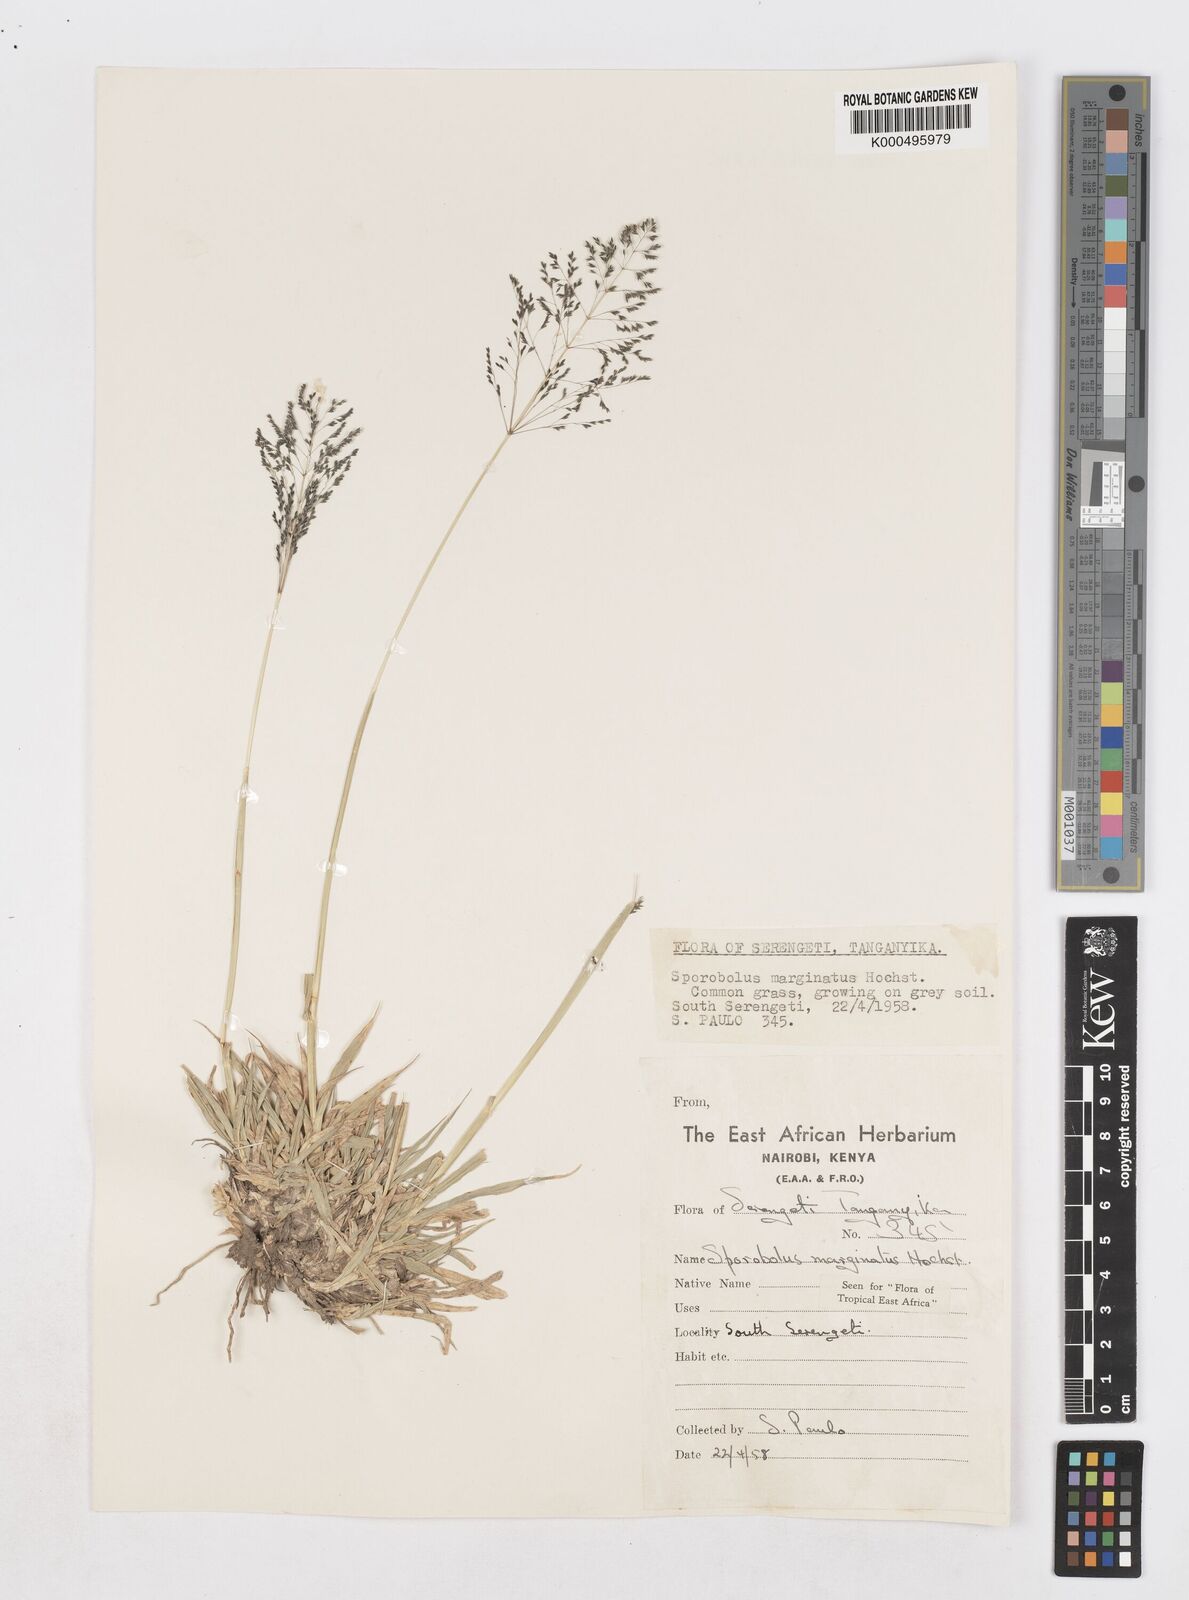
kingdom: Plantae
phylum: Tracheophyta
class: Liliopsida
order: Poales
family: Poaceae
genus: Sporobolus
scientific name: Sporobolus ioclados
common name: Pan dropseed
